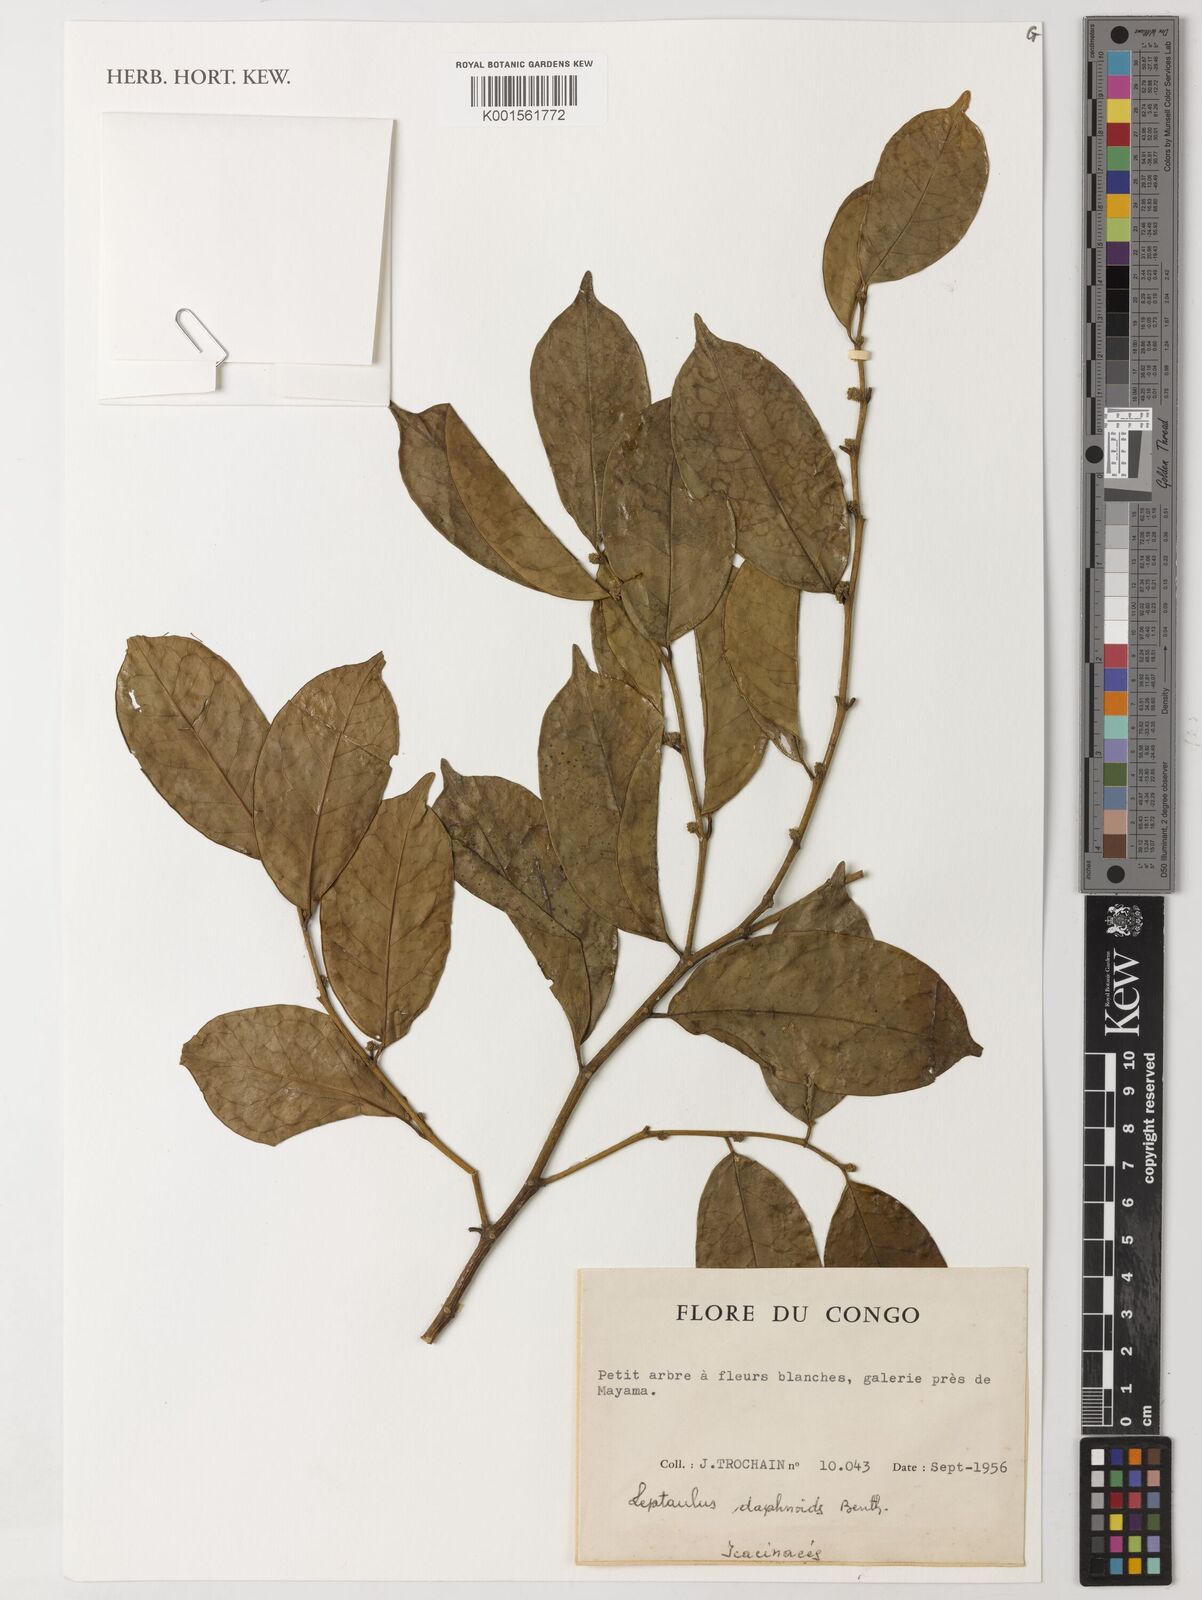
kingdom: Plantae
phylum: Tracheophyta
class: Magnoliopsida
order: Cardiopteridales
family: Cardiopteridaceae
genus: Leptaulus
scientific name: Leptaulus daphnoides
